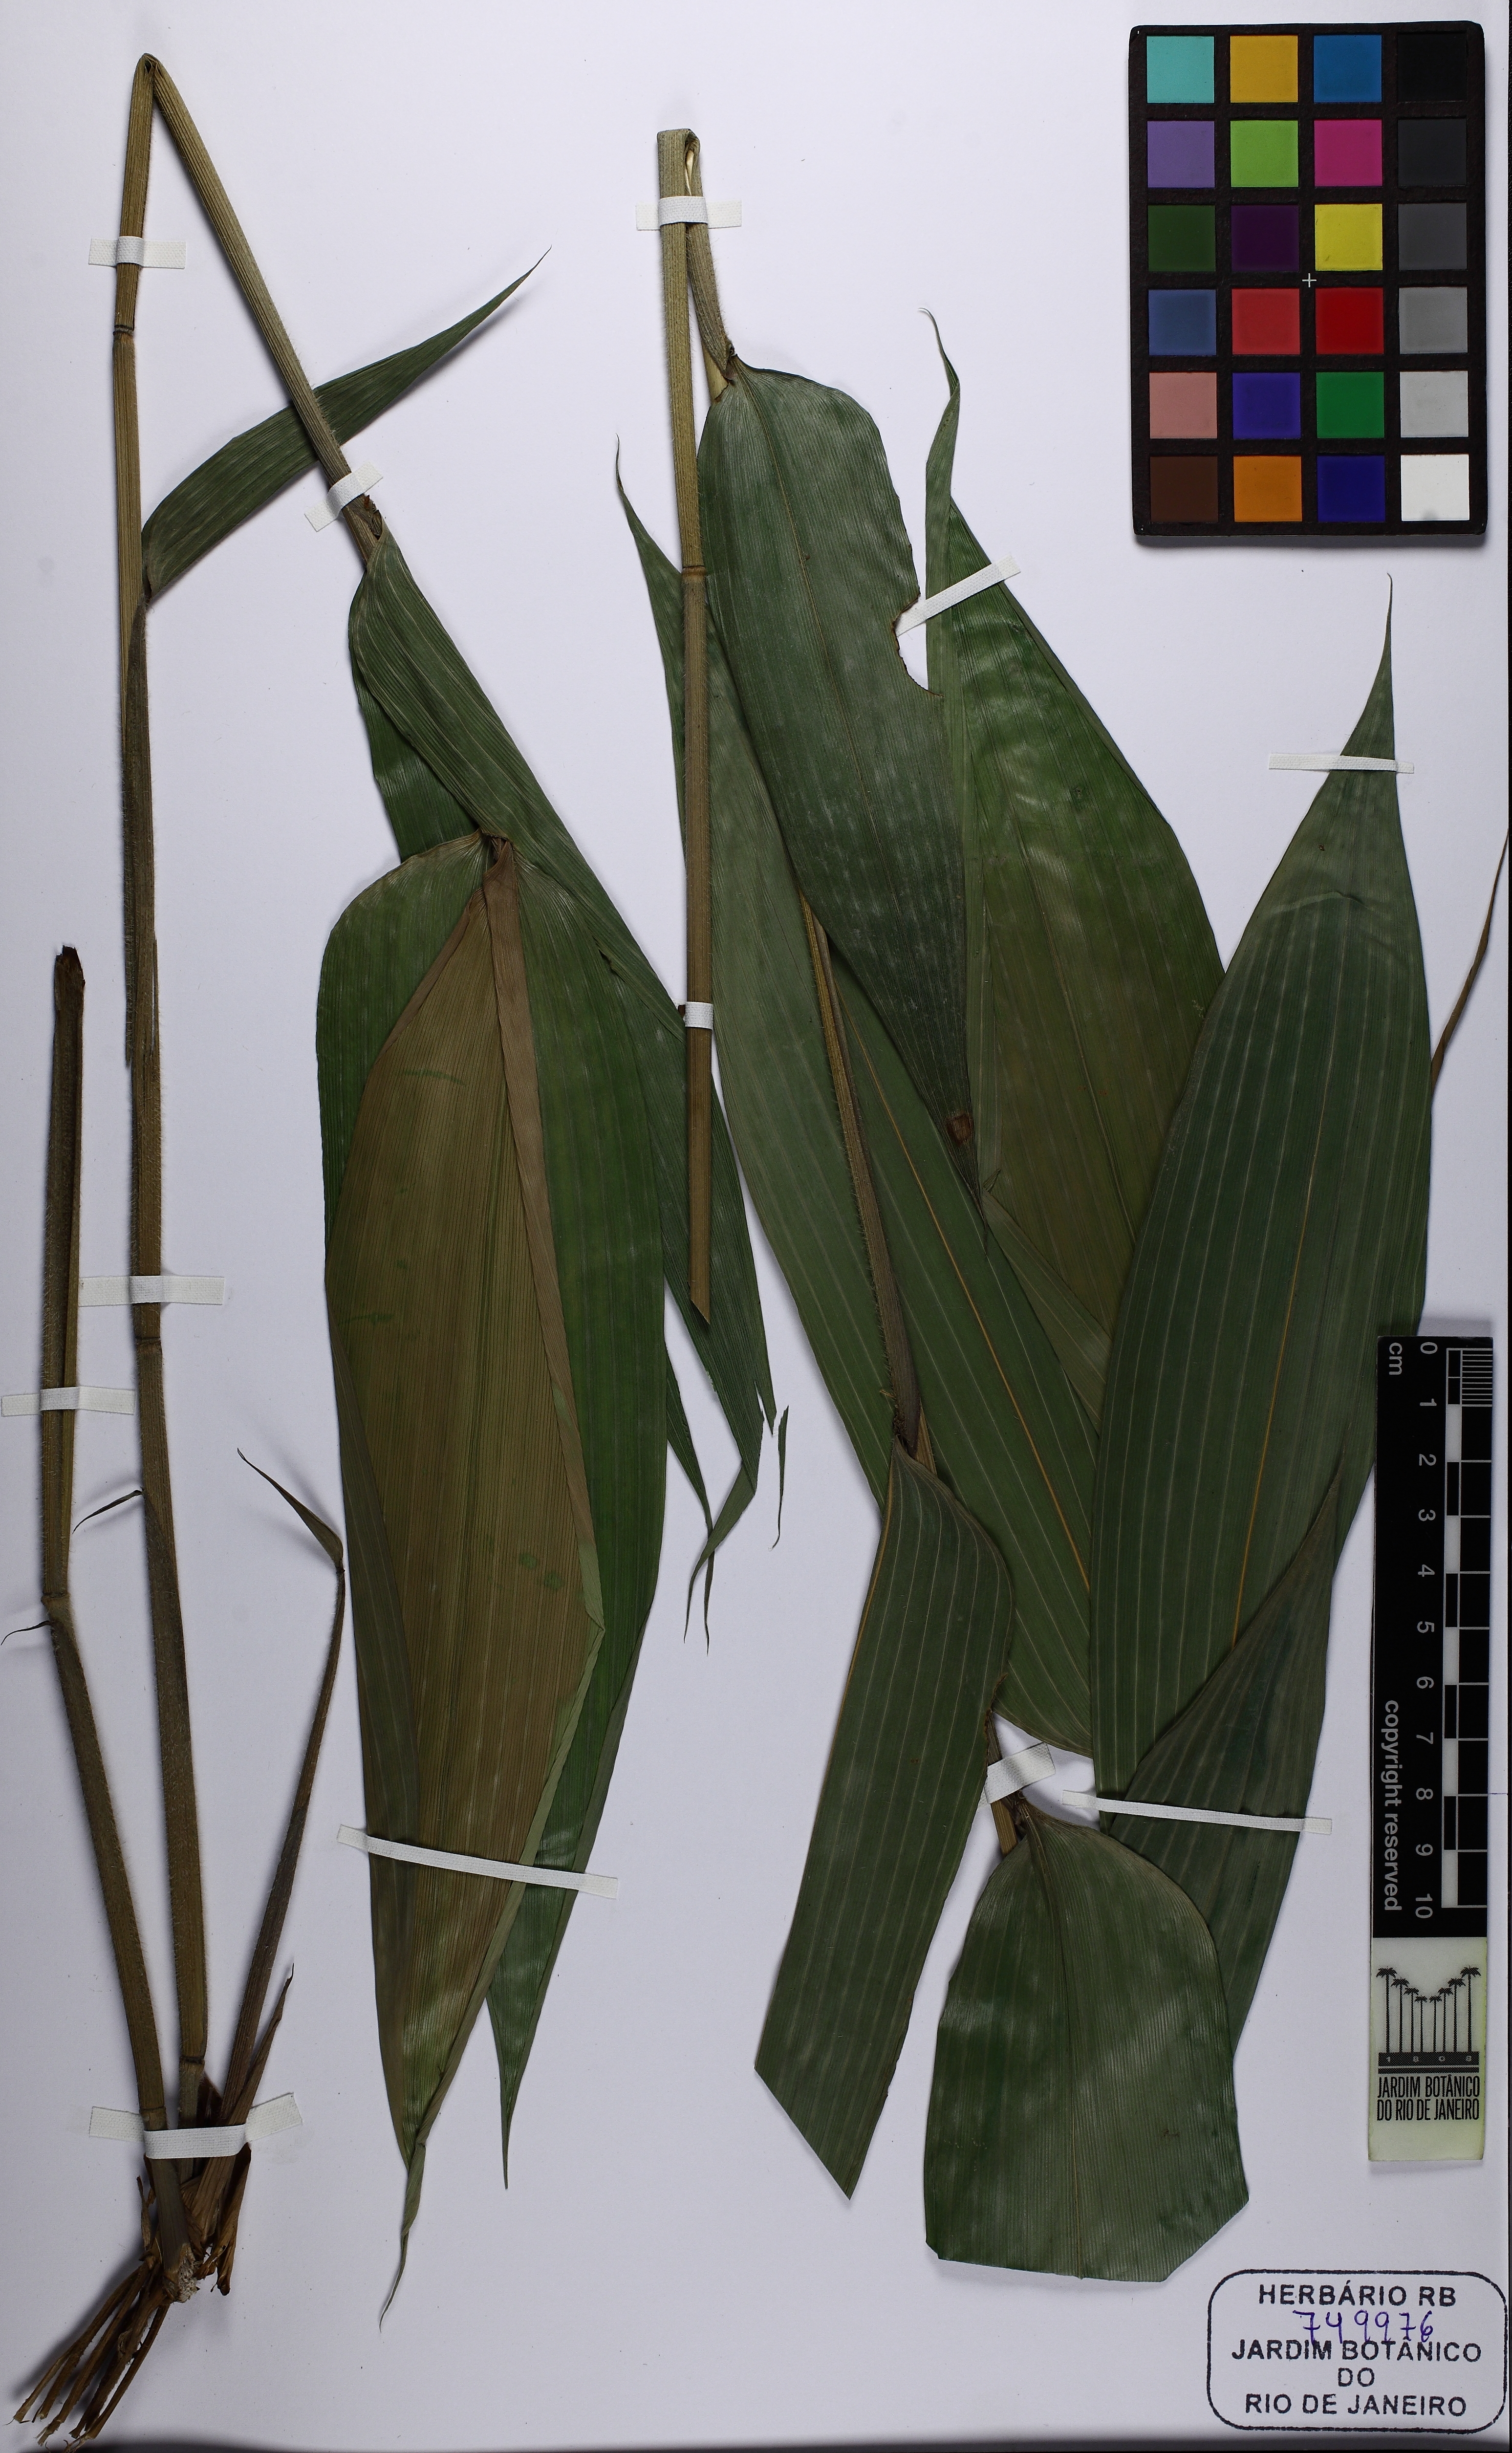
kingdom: Plantae
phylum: Tracheophyta
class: Liliopsida
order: Poales
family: Poaceae
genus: Taquara
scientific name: Taquara micrantha
